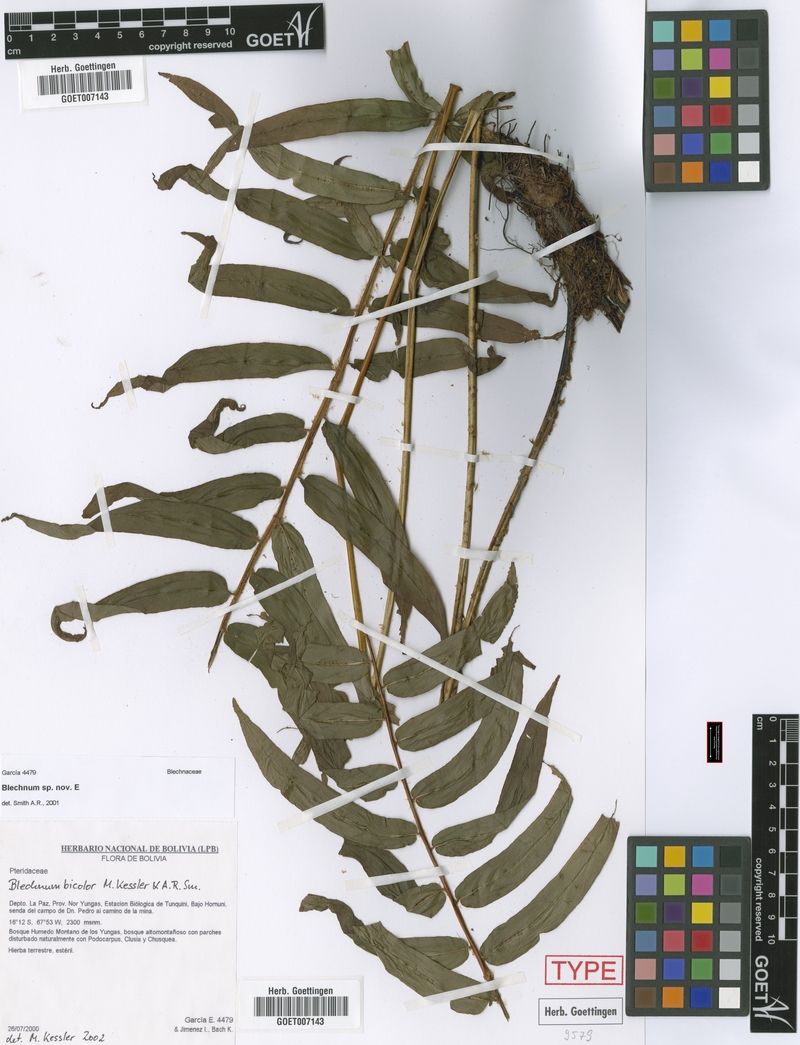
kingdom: Plantae
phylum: Tracheophyta
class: Polypodiopsida
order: Polypodiales
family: Blechnaceae
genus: Parablechnum
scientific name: Parablechnum bicolor
